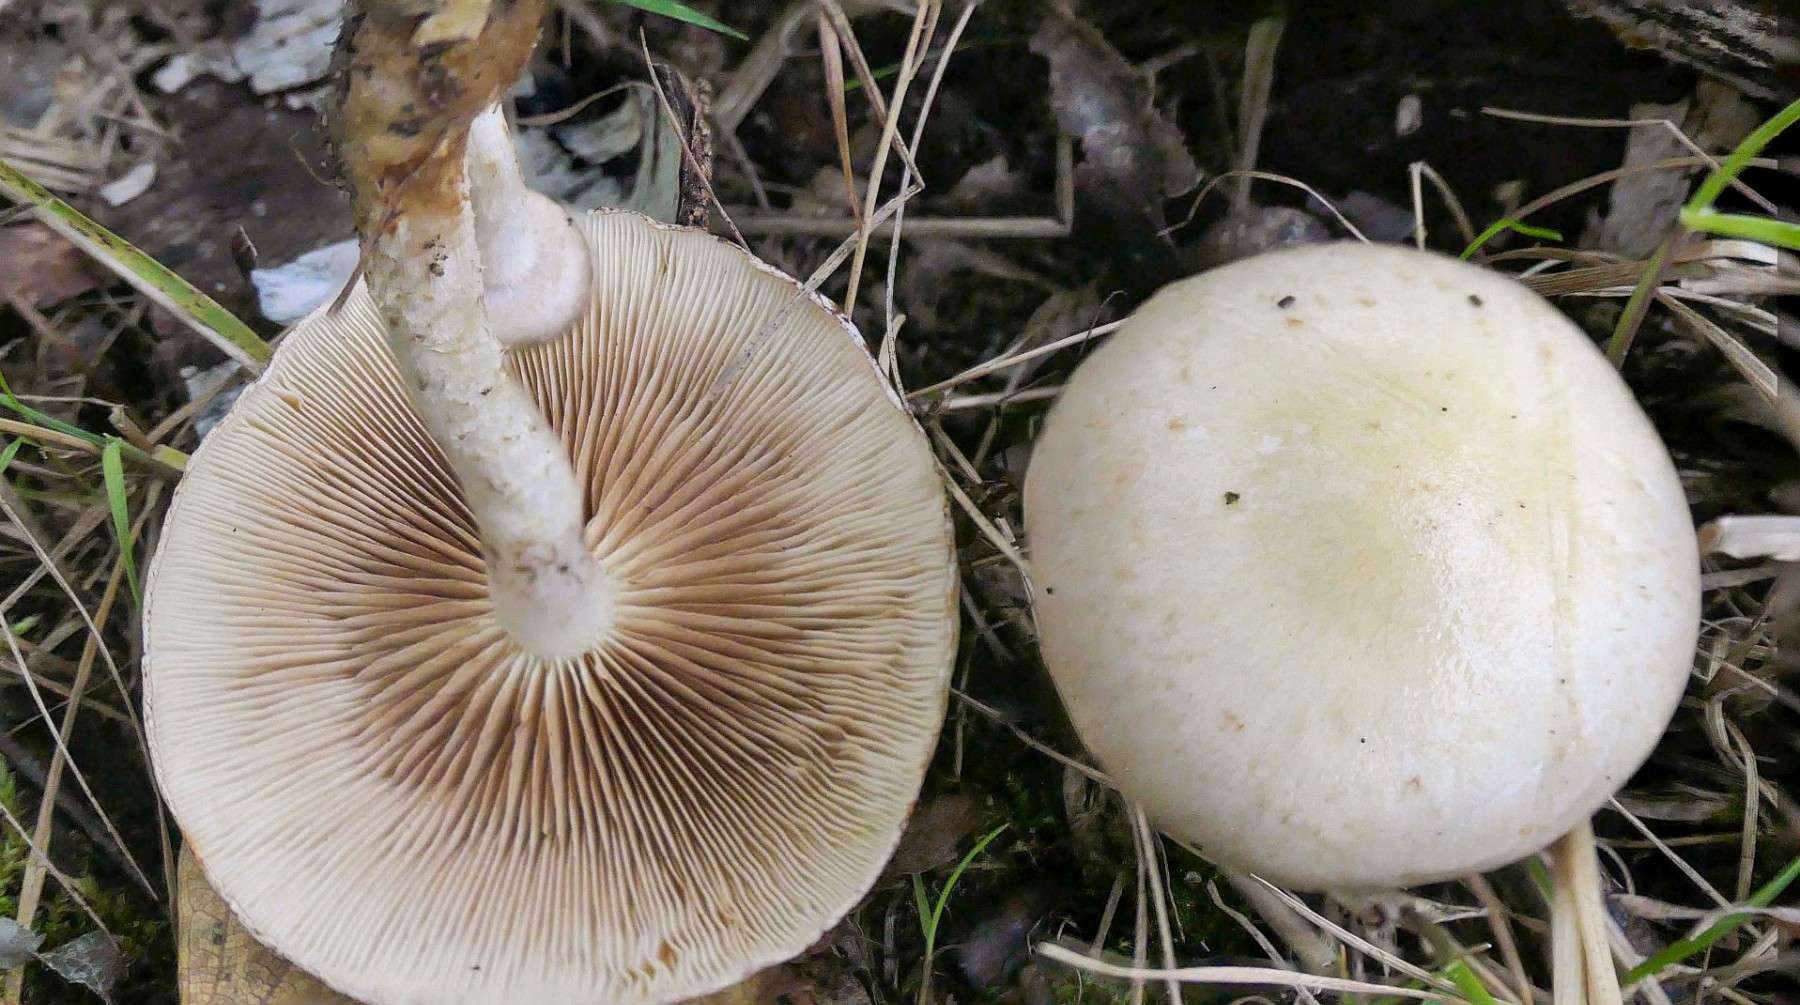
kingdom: Fungi
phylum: Basidiomycota
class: Agaricomycetes
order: Agaricales
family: Strophariaceae
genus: Pholiota
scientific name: Pholiota gummosa
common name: grøngul skælhat
